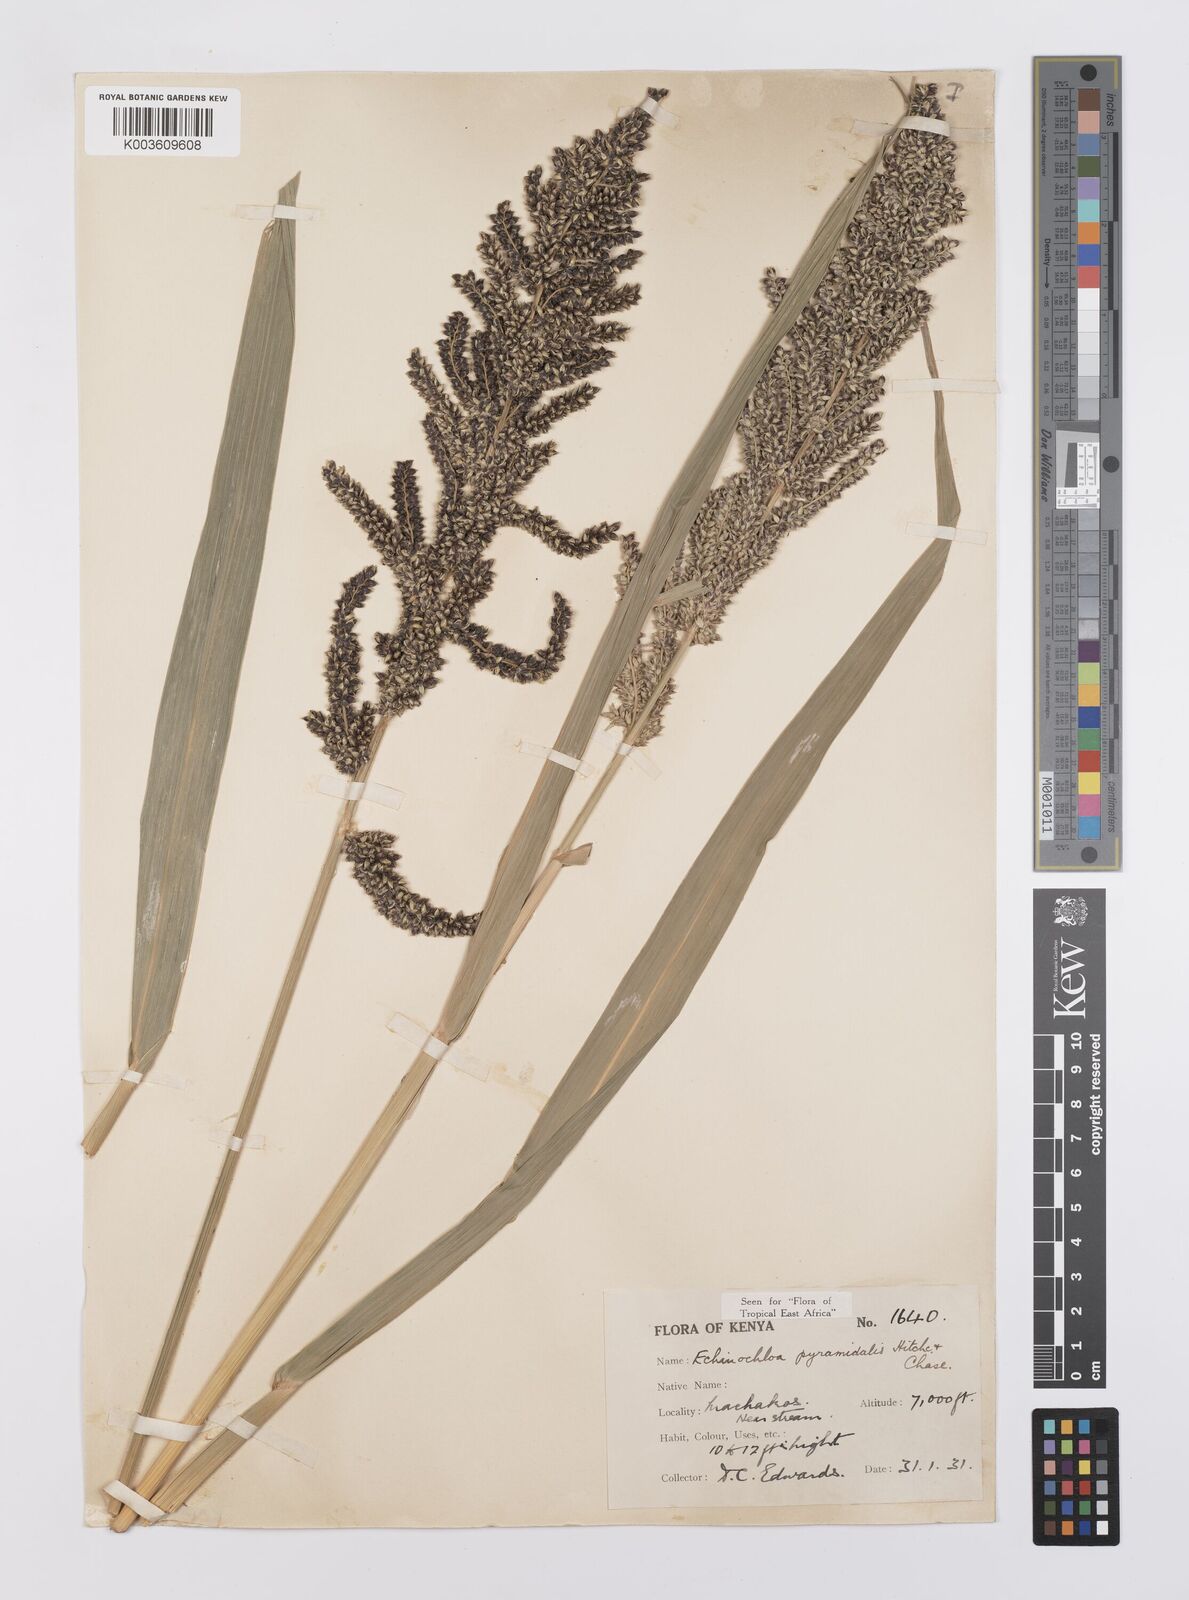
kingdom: Plantae
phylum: Tracheophyta
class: Liliopsida
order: Poales
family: Poaceae
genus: Echinochloa
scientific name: Echinochloa
